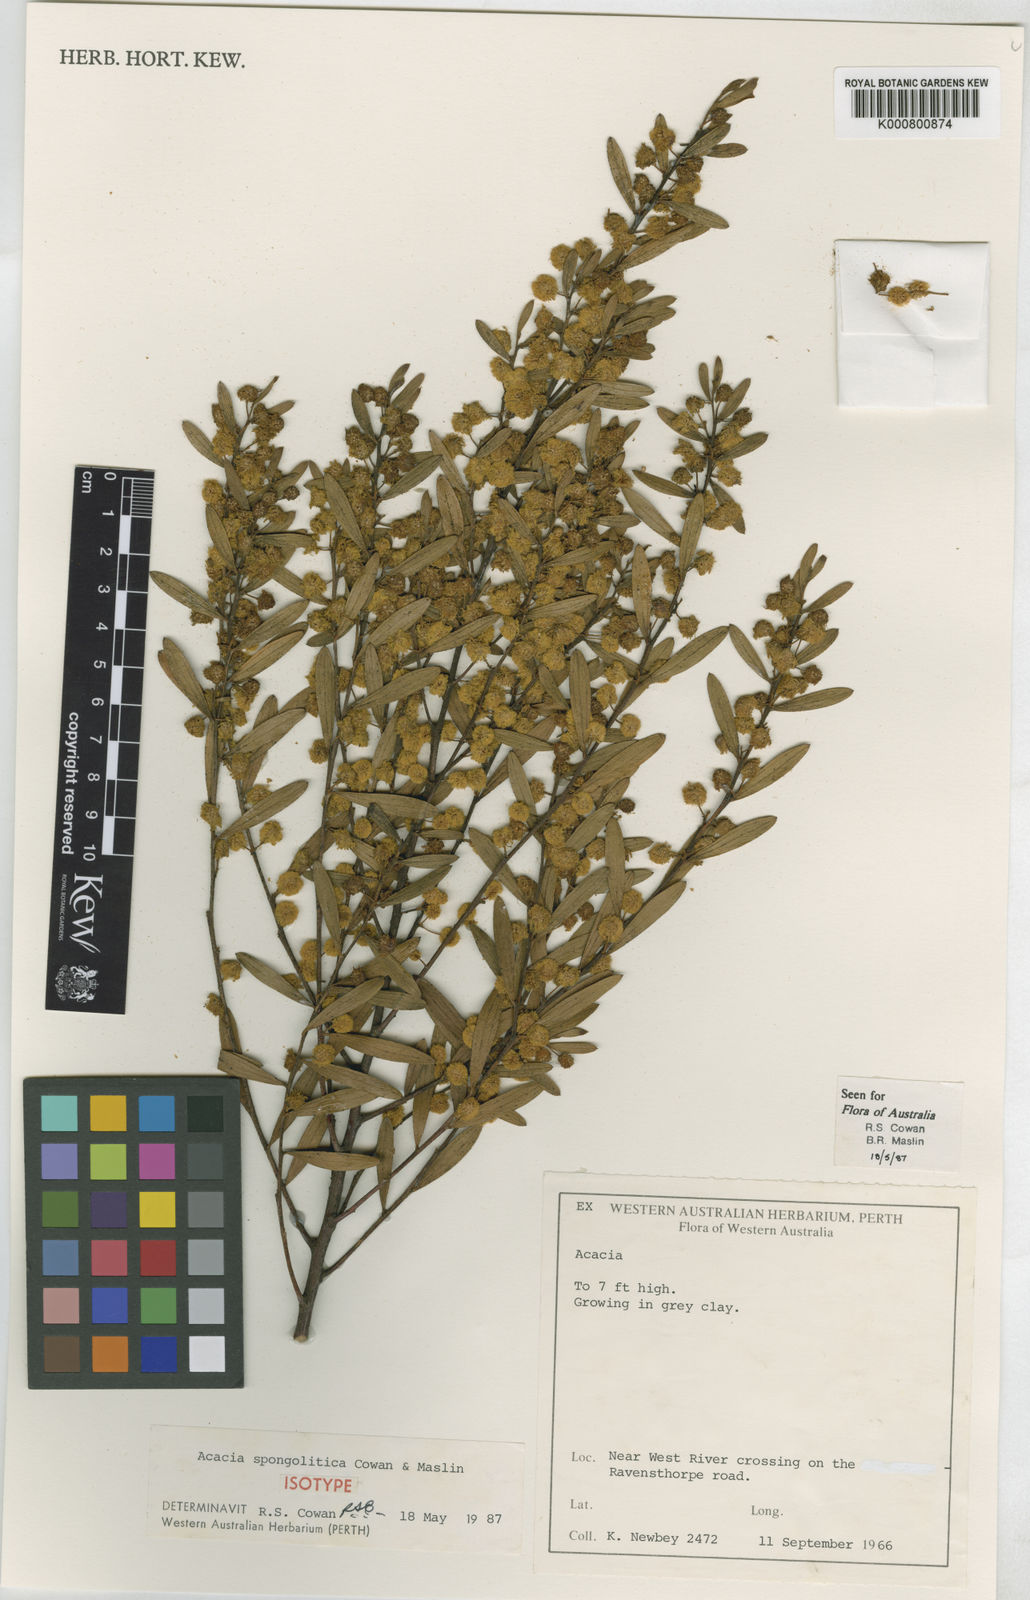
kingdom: Plantae
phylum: Tracheophyta
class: Magnoliopsida
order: Fabales
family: Fabaceae
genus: Acacia
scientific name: Acacia spongolitica
